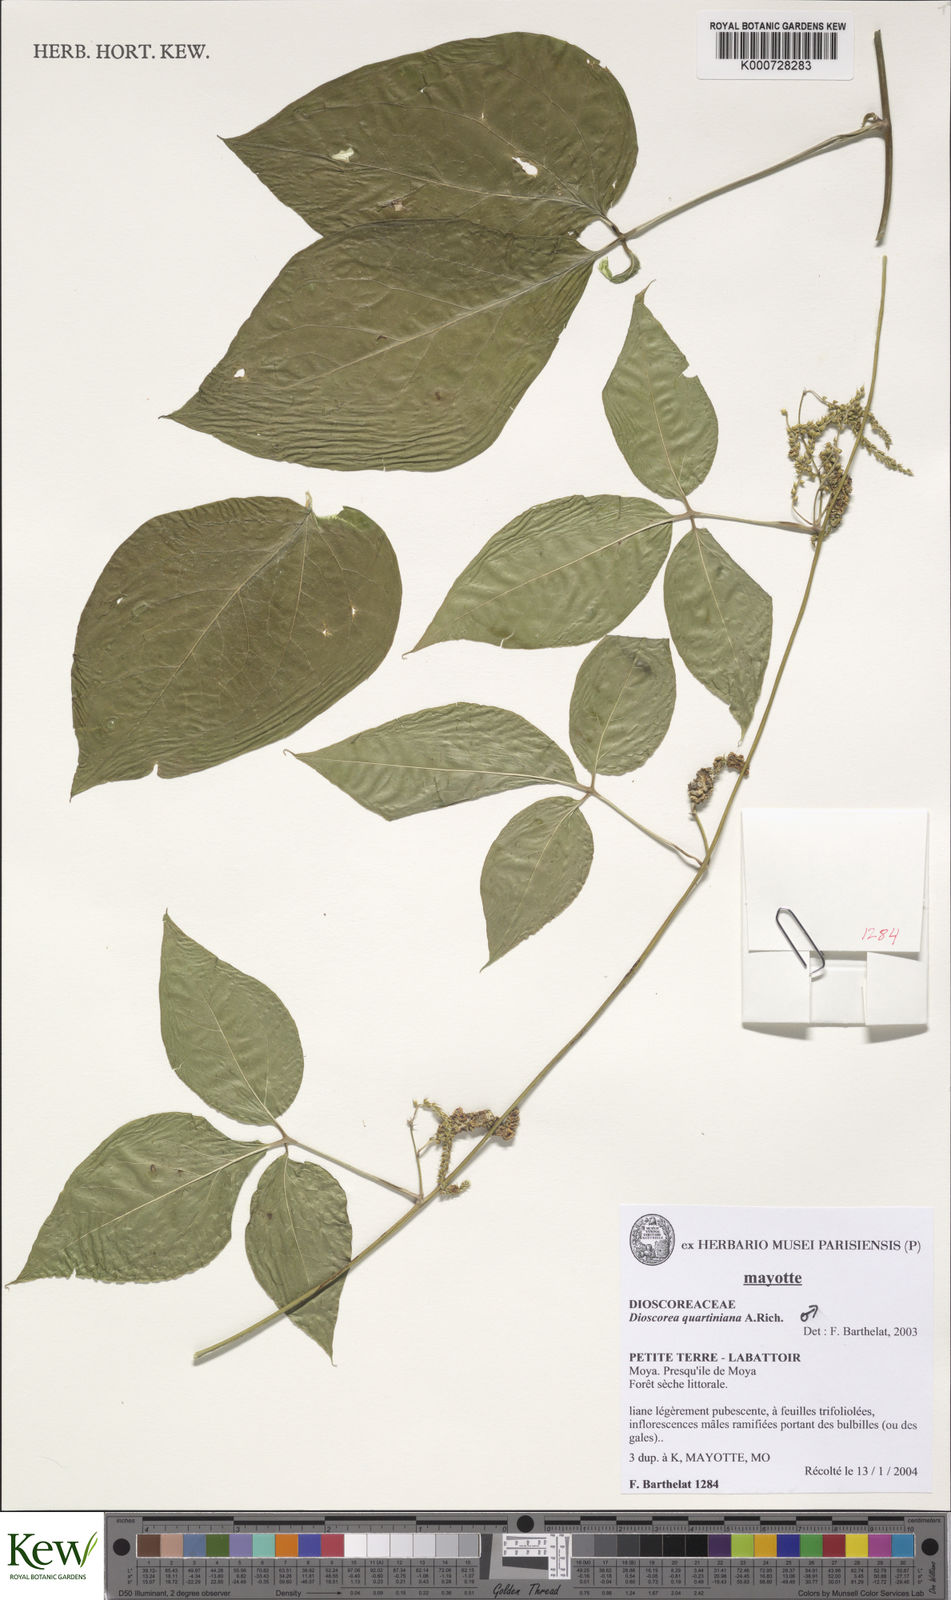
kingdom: Plantae
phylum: Tracheophyta
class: Liliopsida
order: Dioscoreales
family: Dioscoreaceae
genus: Dioscorea
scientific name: Dioscorea quartiniana
